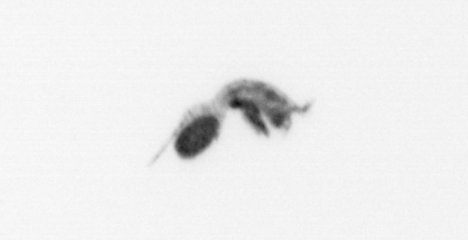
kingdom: Animalia
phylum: Arthropoda
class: Copepoda
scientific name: Copepoda
